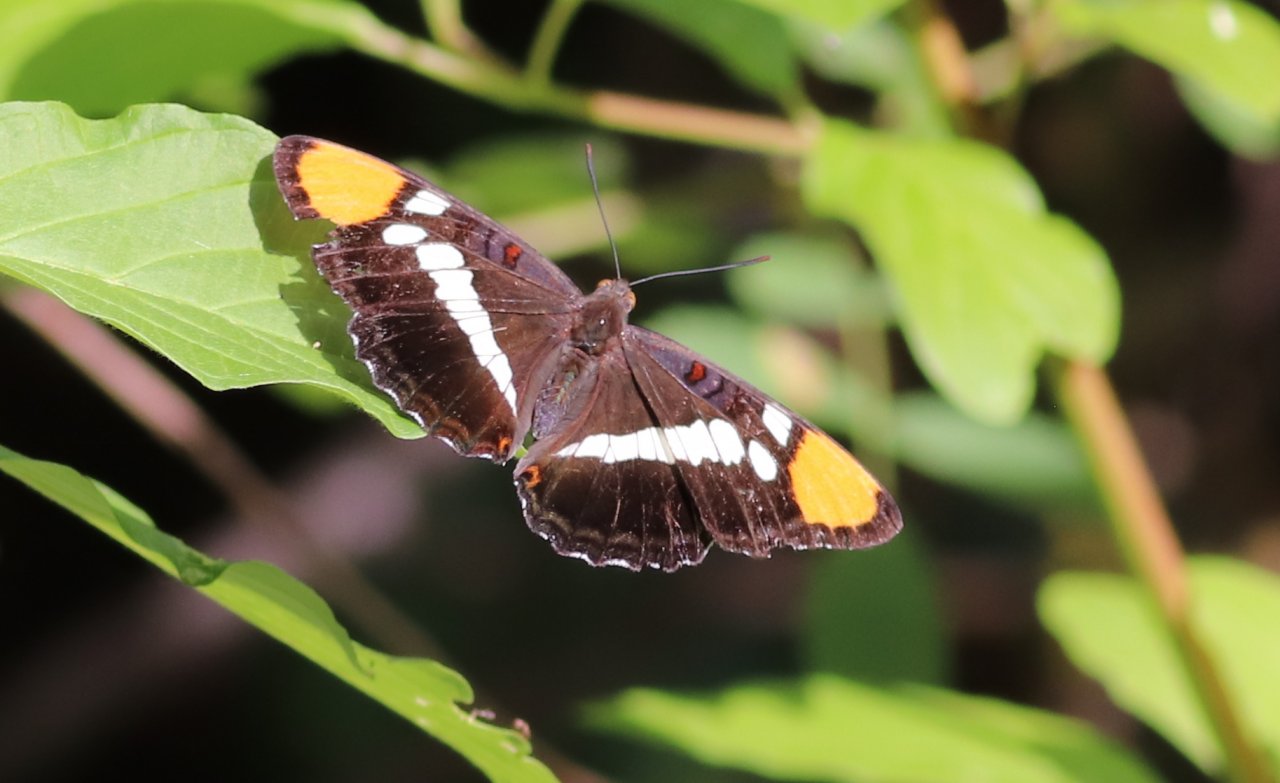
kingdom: Animalia
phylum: Arthropoda
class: Insecta
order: Lepidoptera
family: Nymphalidae
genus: Limenitis
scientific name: Limenitis bredowii
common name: California Sister
